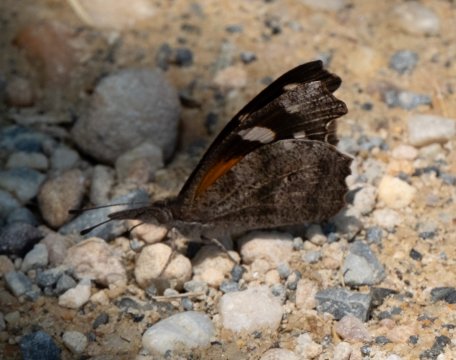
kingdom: Animalia
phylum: Arthropoda
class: Insecta
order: Lepidoptera
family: Nymphalidae
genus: Libytheana
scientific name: Libytheana carinenta
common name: American Snout
